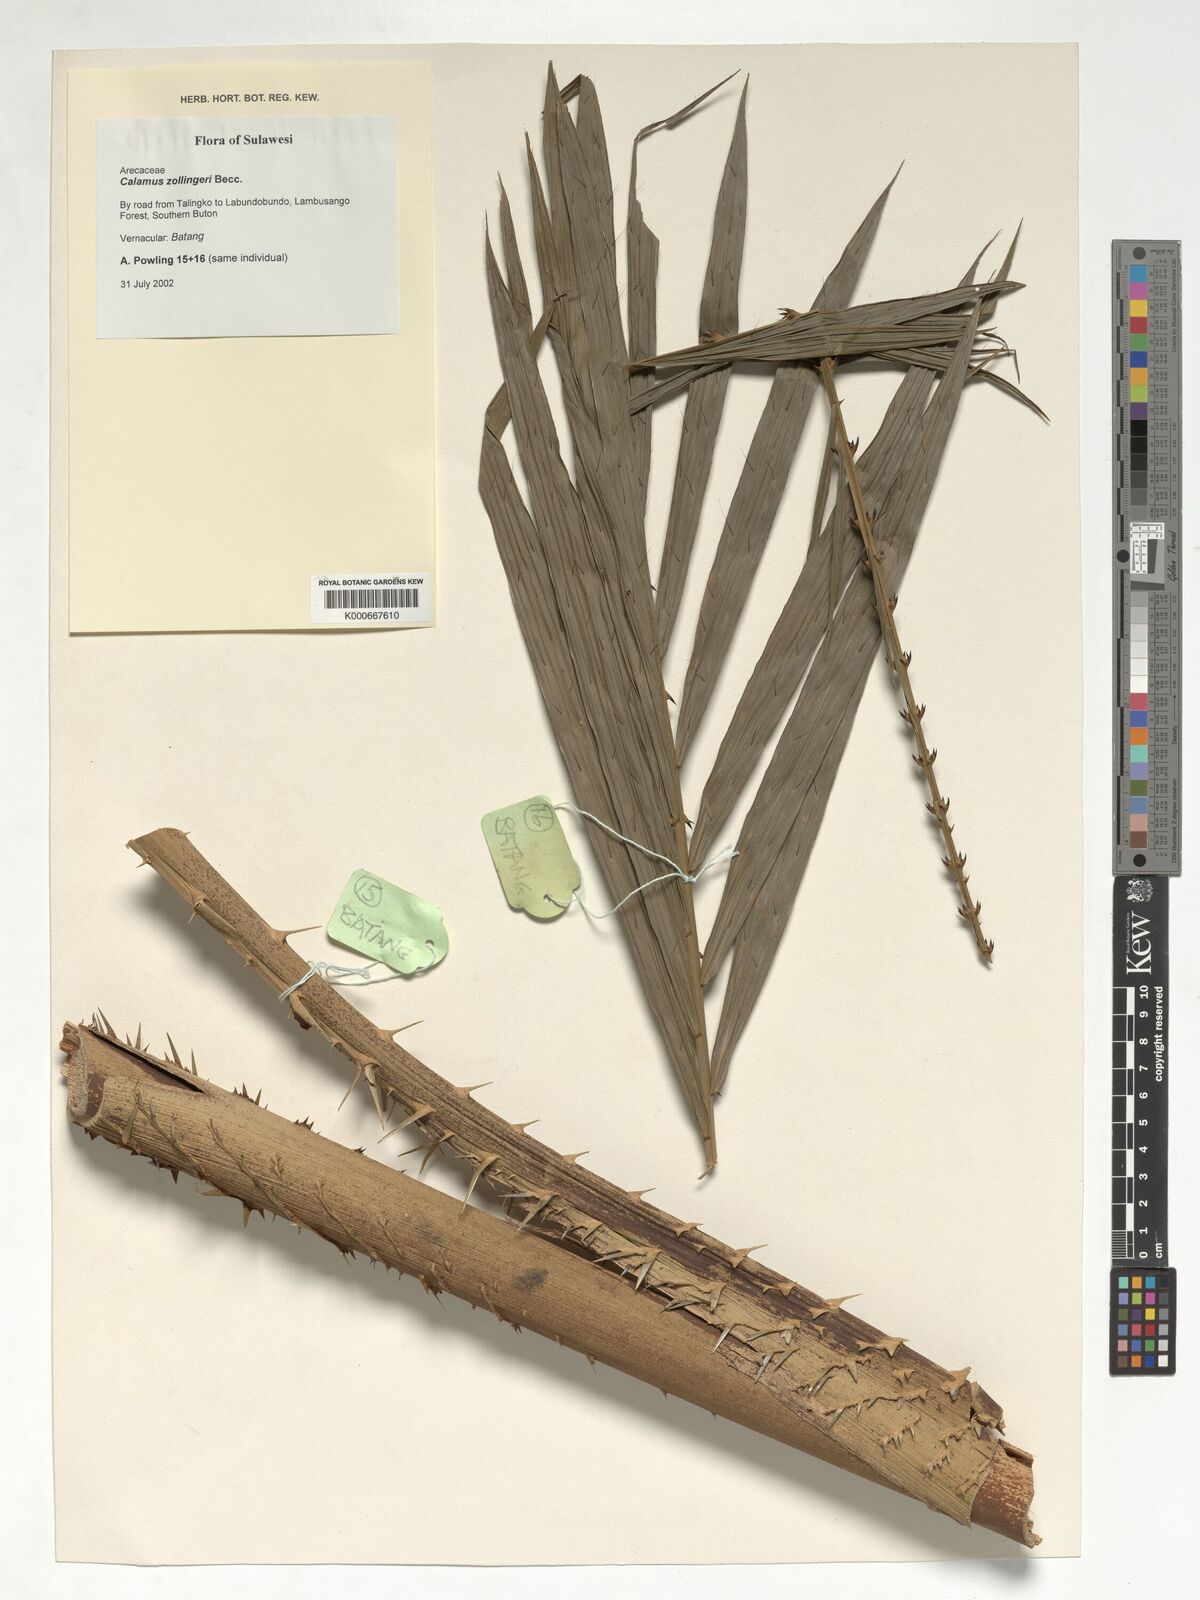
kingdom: Plantae
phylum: Tracheophyta
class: Liliopsida
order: Arecales
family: Arecaceae
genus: Calamus
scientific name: Calamus zollingeri
